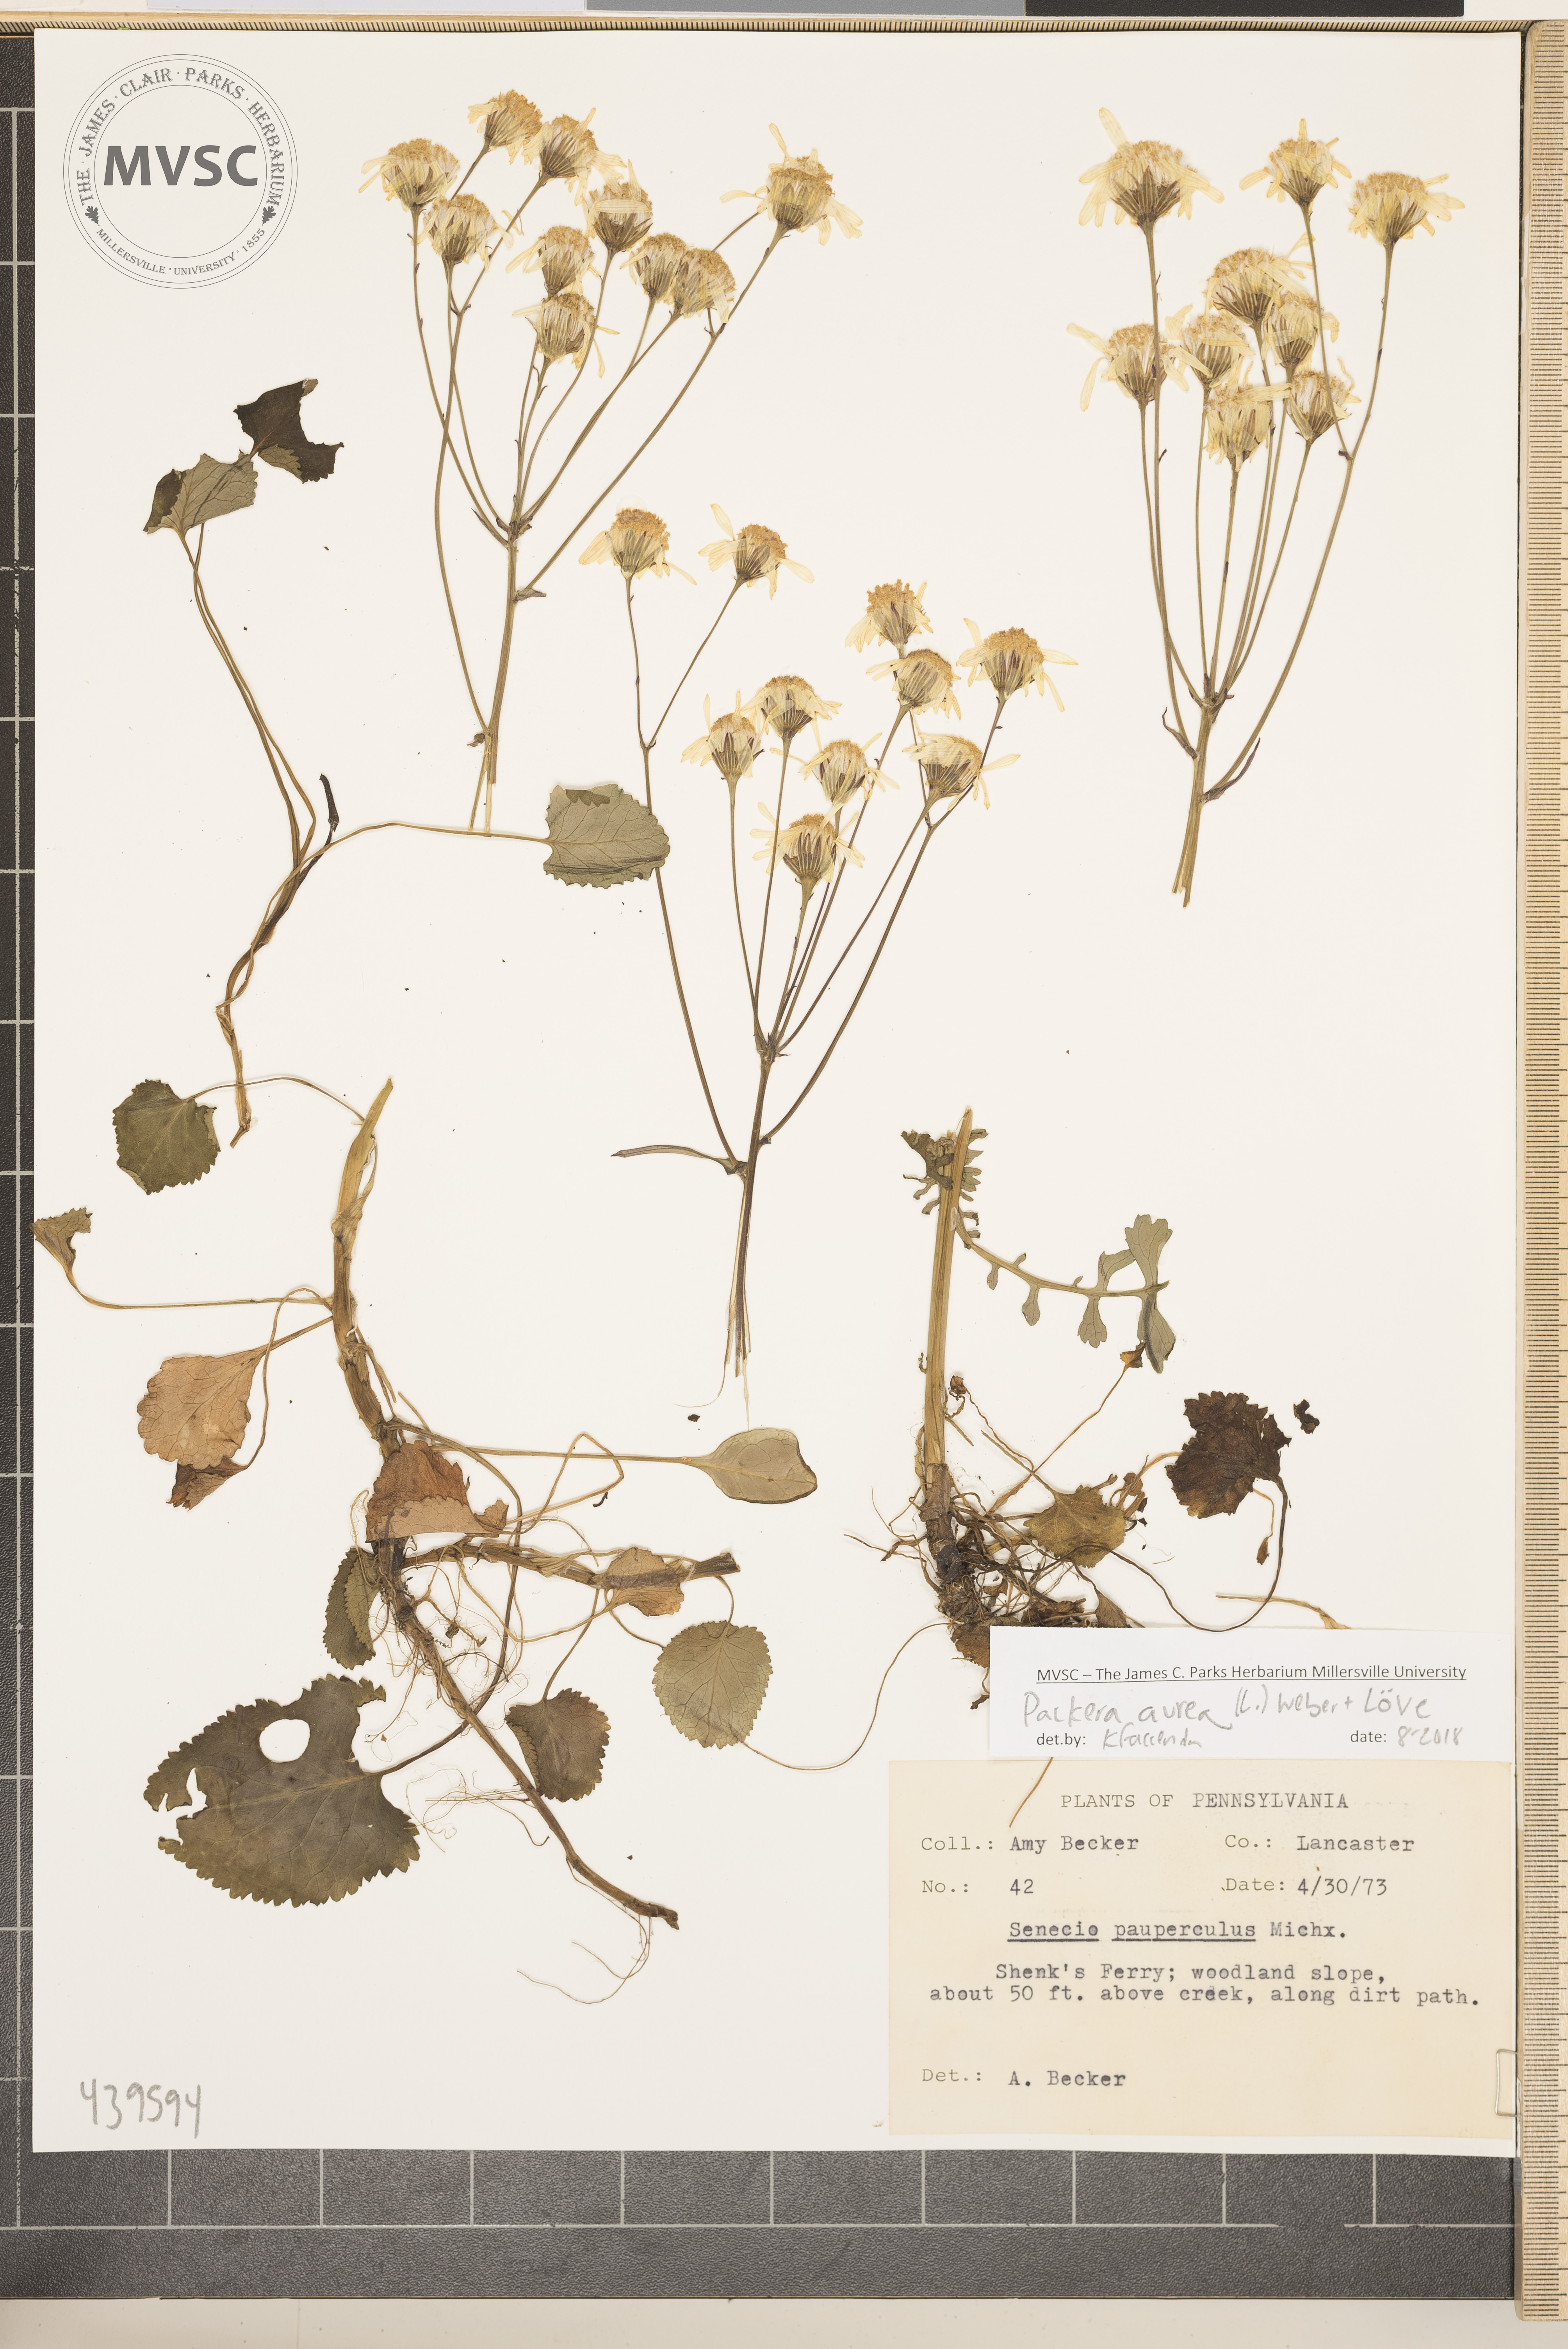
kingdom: Plantae
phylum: Tracheophyta
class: Magnoliopsida
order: Asterales
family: Asteraceae
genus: Packera
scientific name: Packera aurea
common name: Golden groundsel
